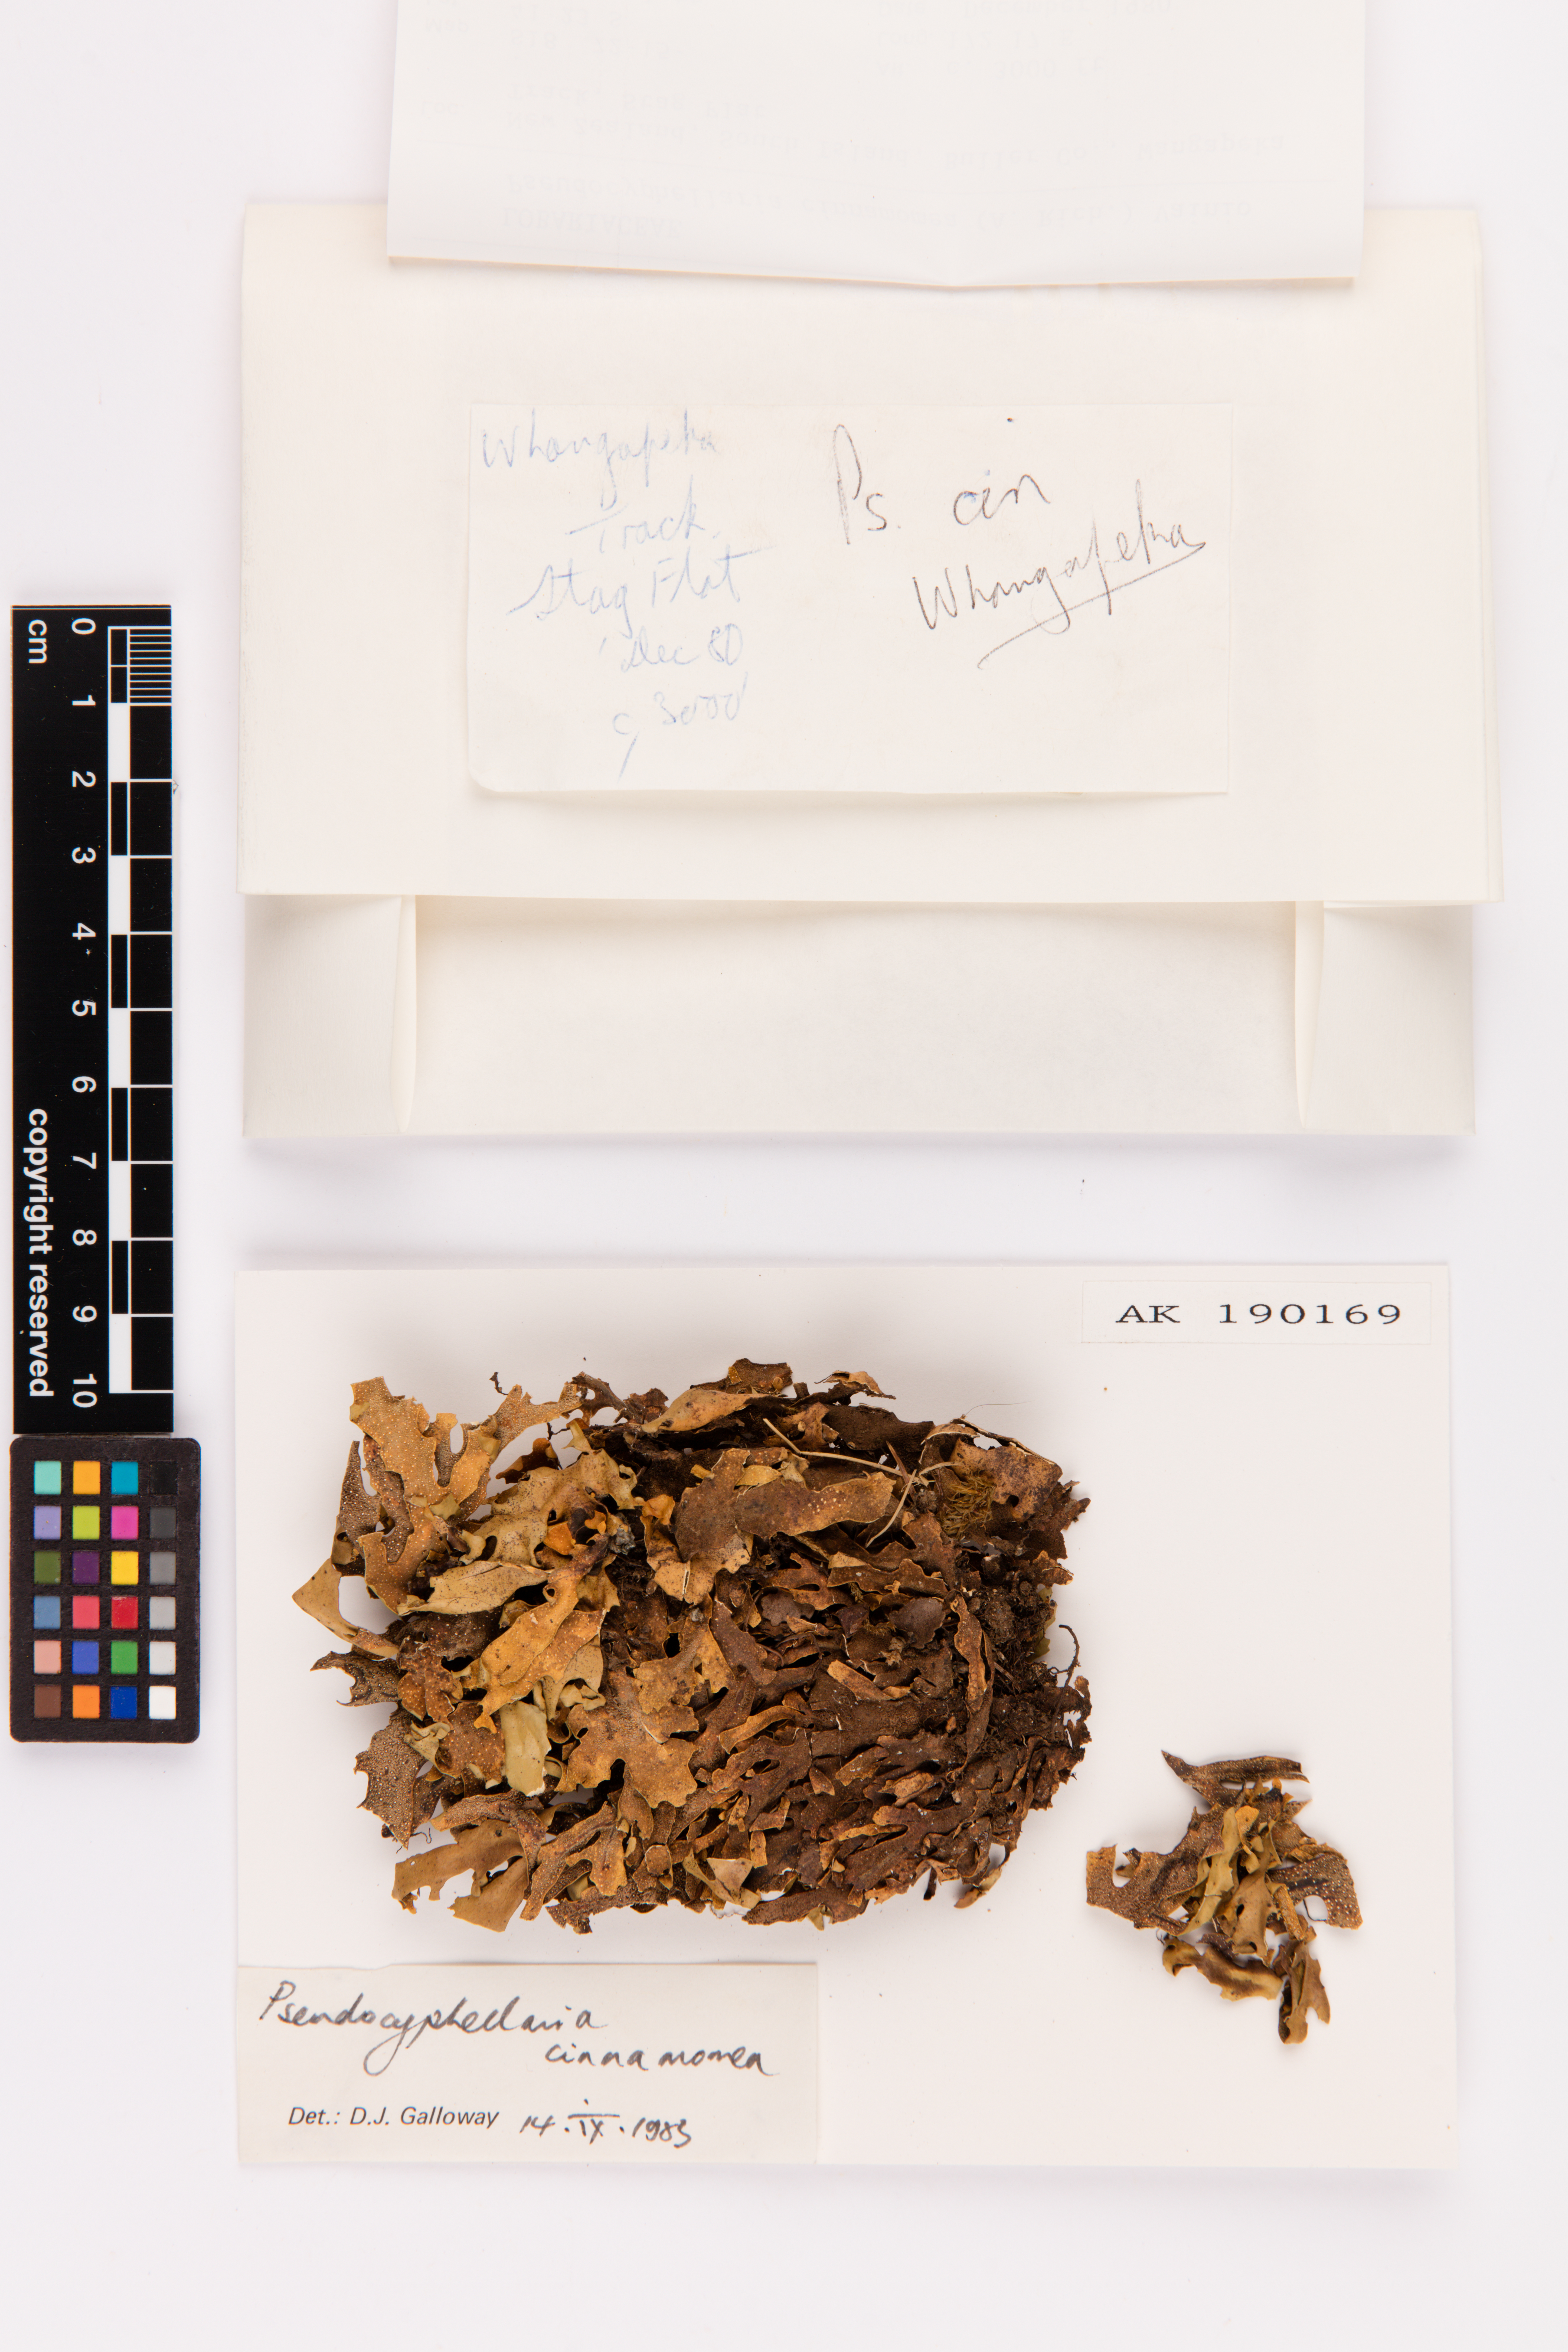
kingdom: Fungi
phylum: Ascomycota
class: Lecanoromycetes
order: Peltigerales
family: Lobariaceae
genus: Pseudocyphellaria
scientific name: Pseudocyphellaria cinnamomea
